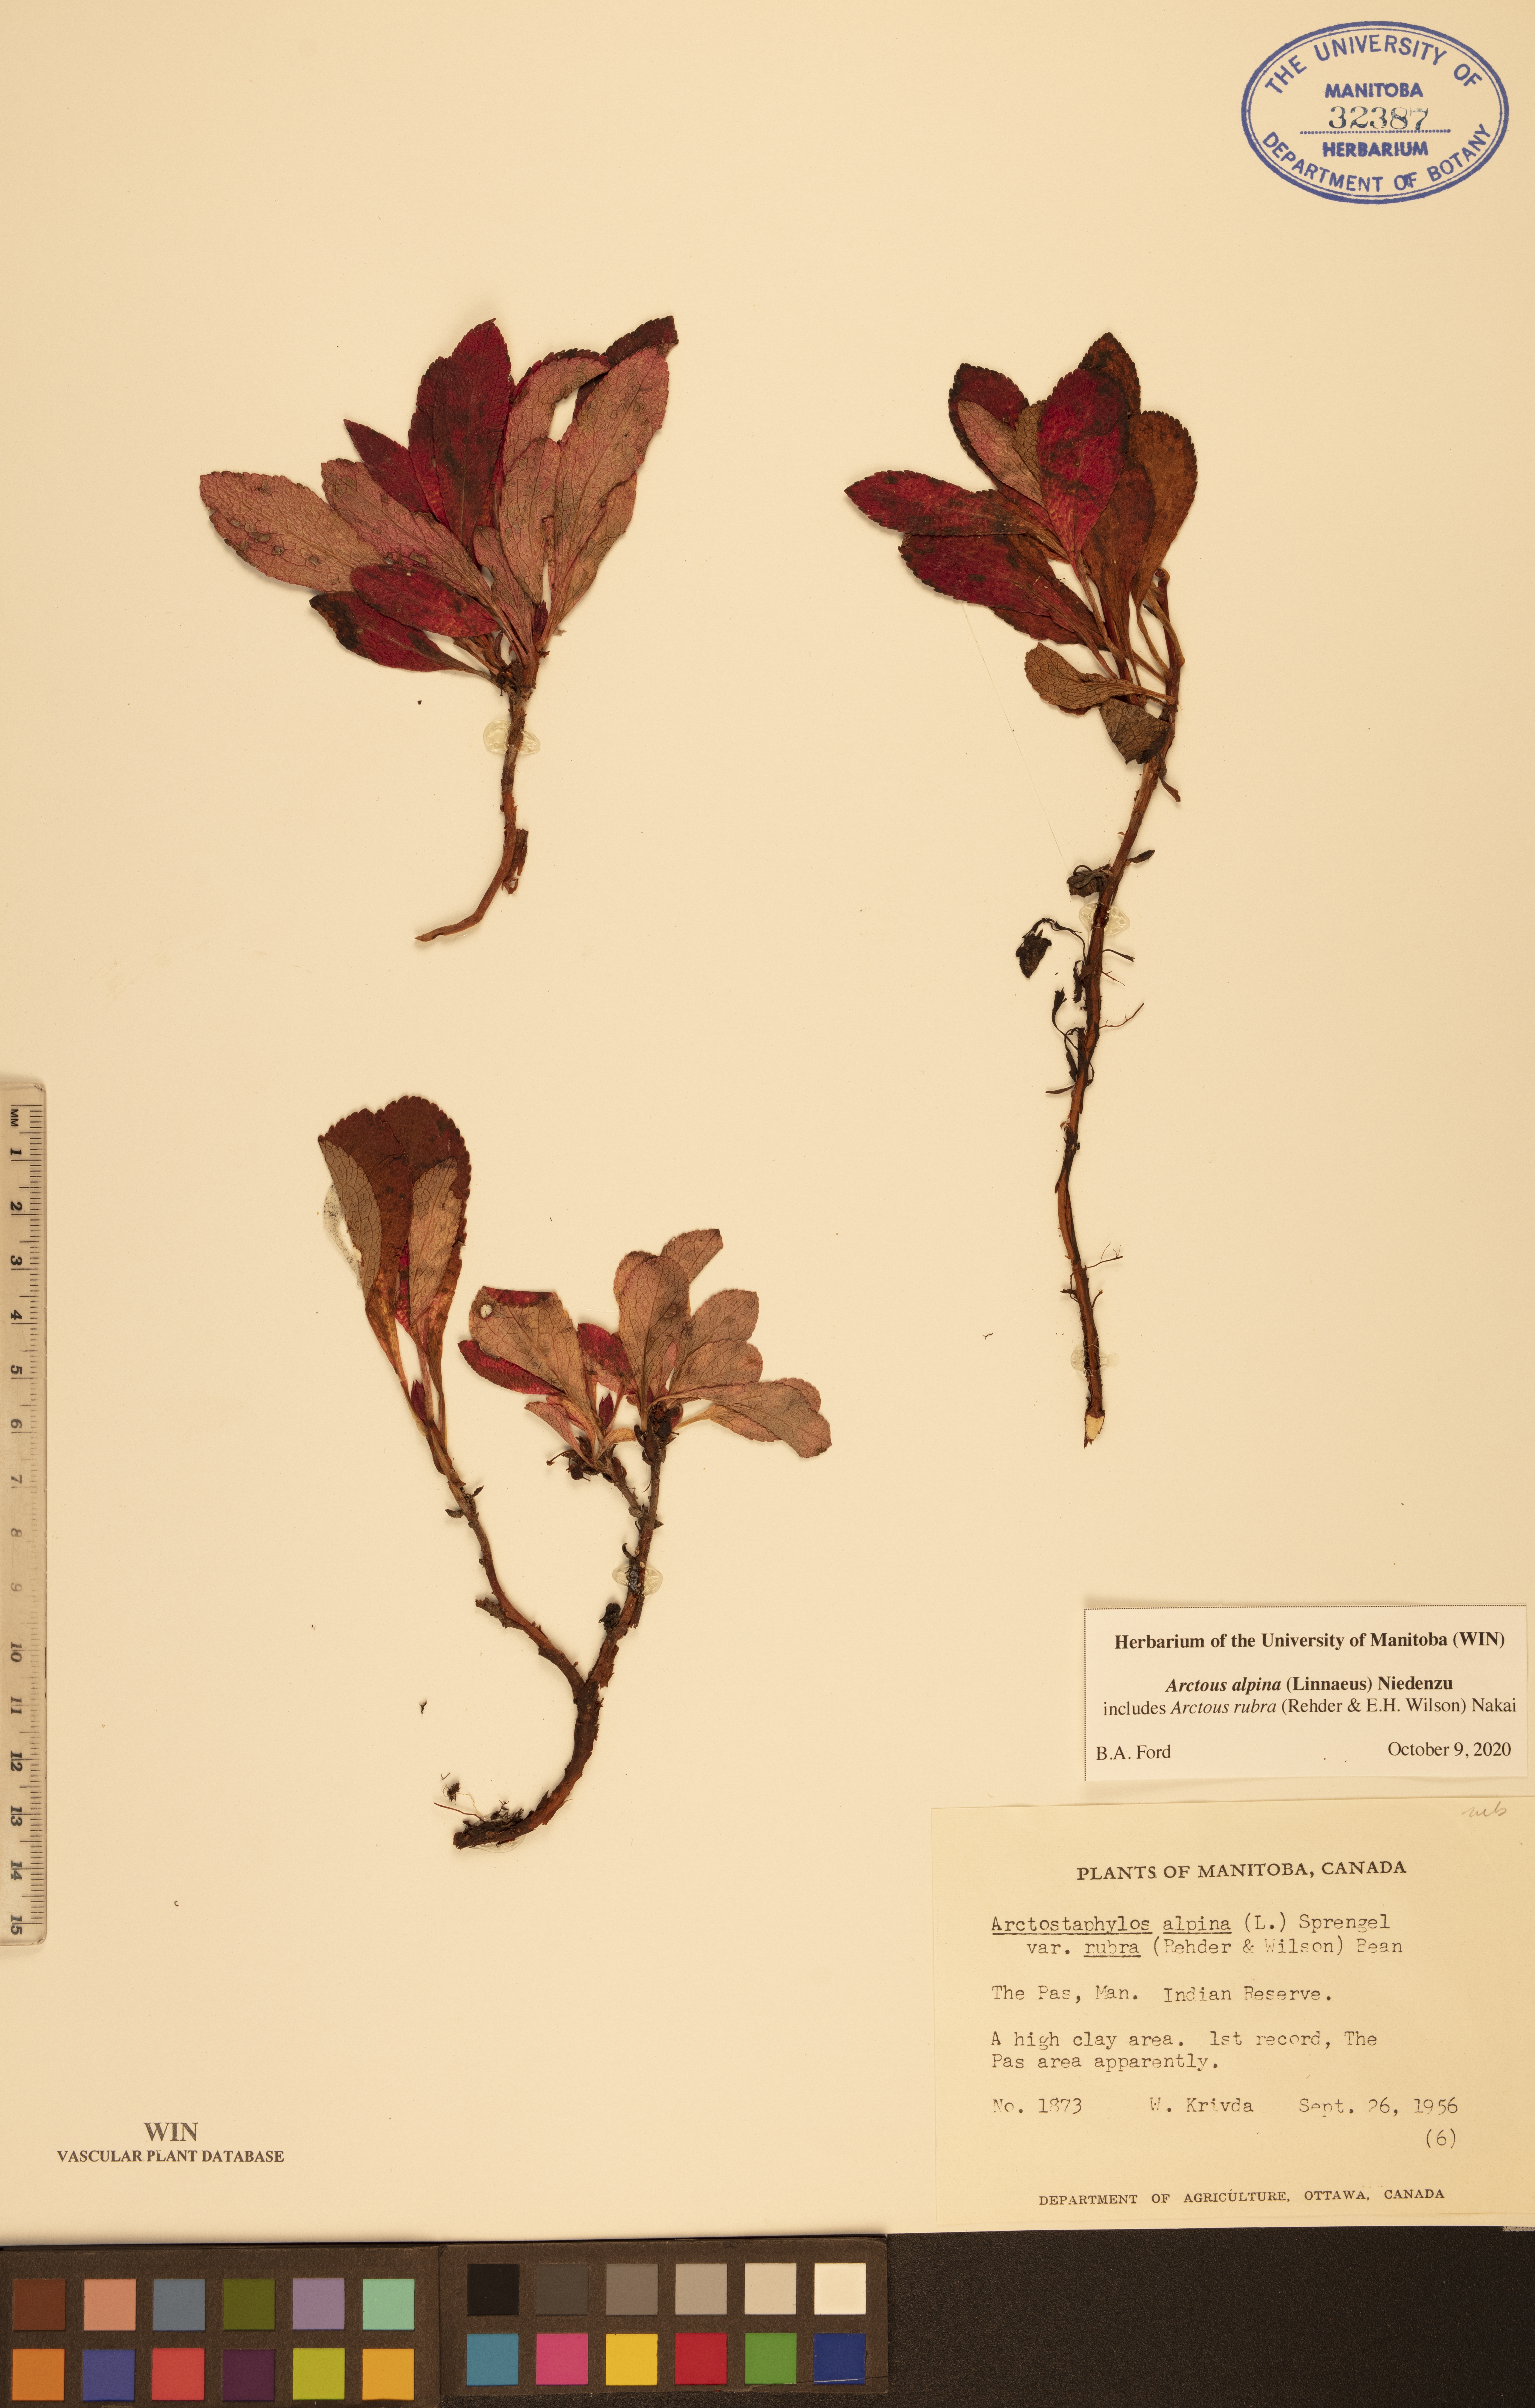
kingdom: Plantae
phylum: Tracheophyta
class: Magnoliopsida
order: Ericales
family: Ericaceae
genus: Arctostaphylos
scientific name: Arctostaphylos alpinus
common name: Alpine bearberry
